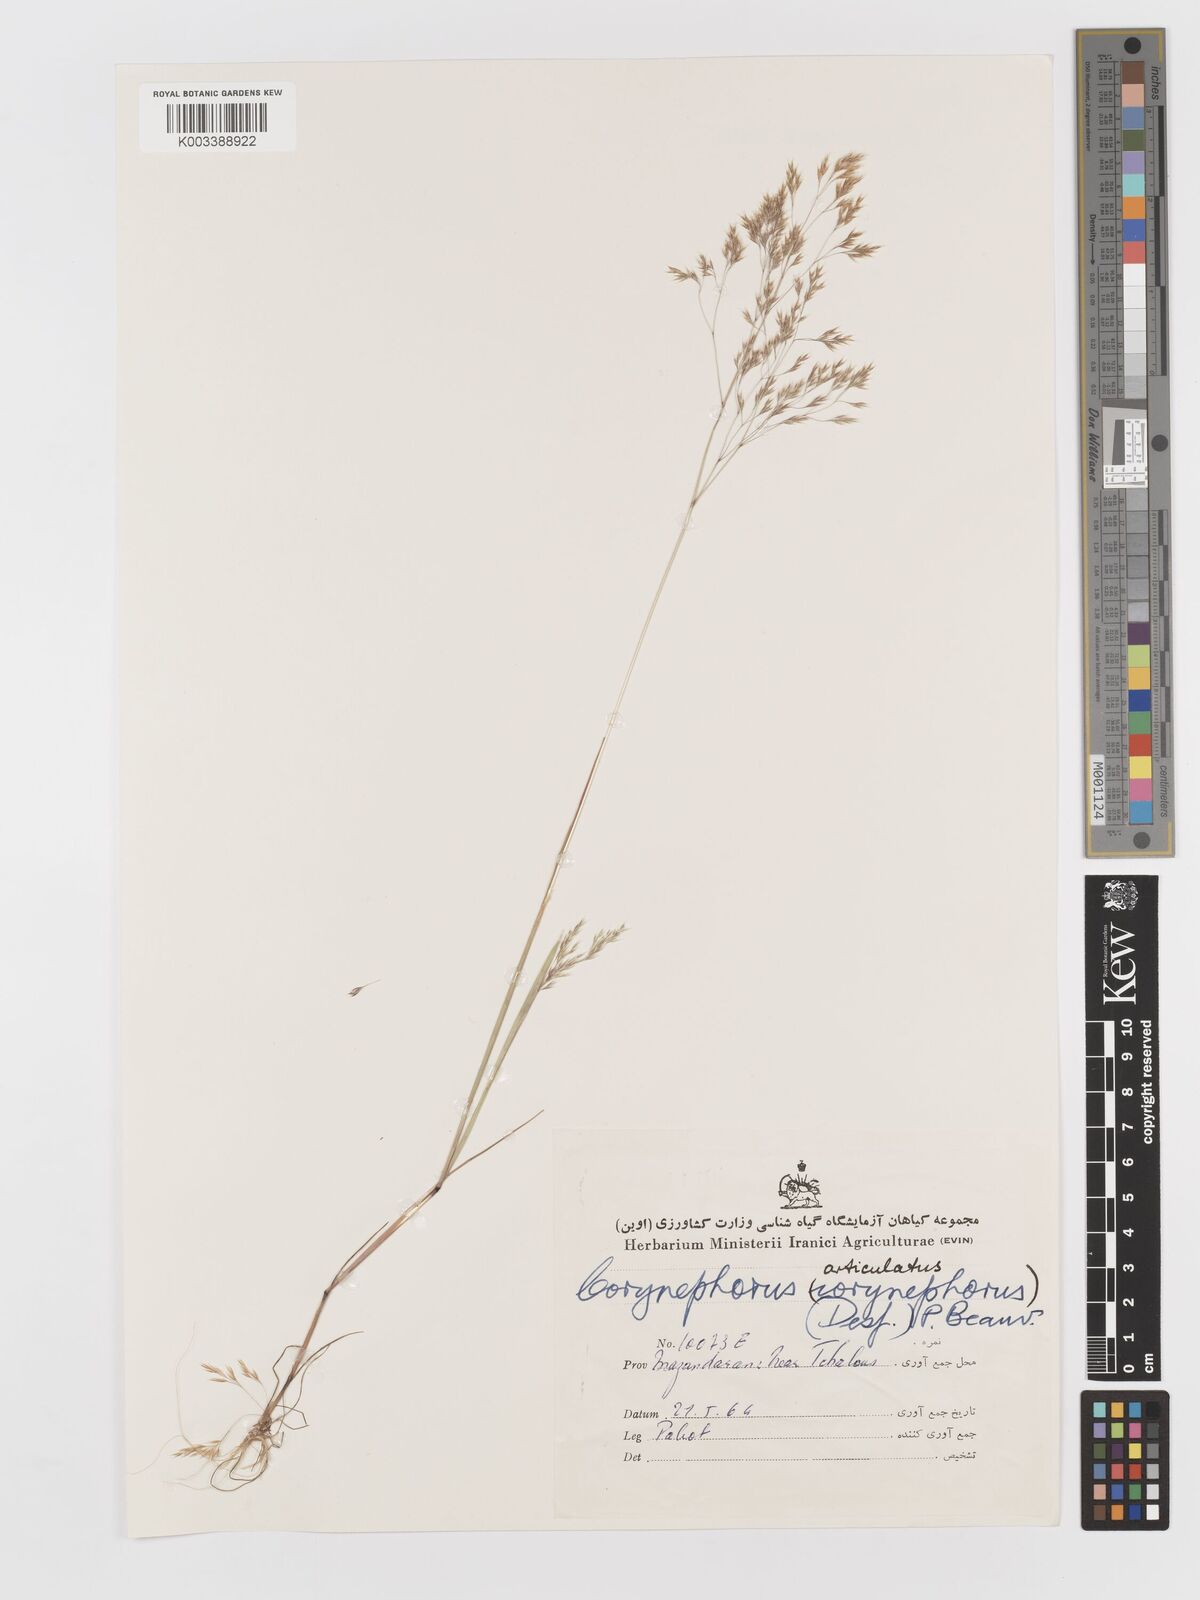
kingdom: Plantae
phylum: Tracheophyta
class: Liliopsida
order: Poales
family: Poaceae
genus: Corynephorus
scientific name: Corynephorus divaricatus
